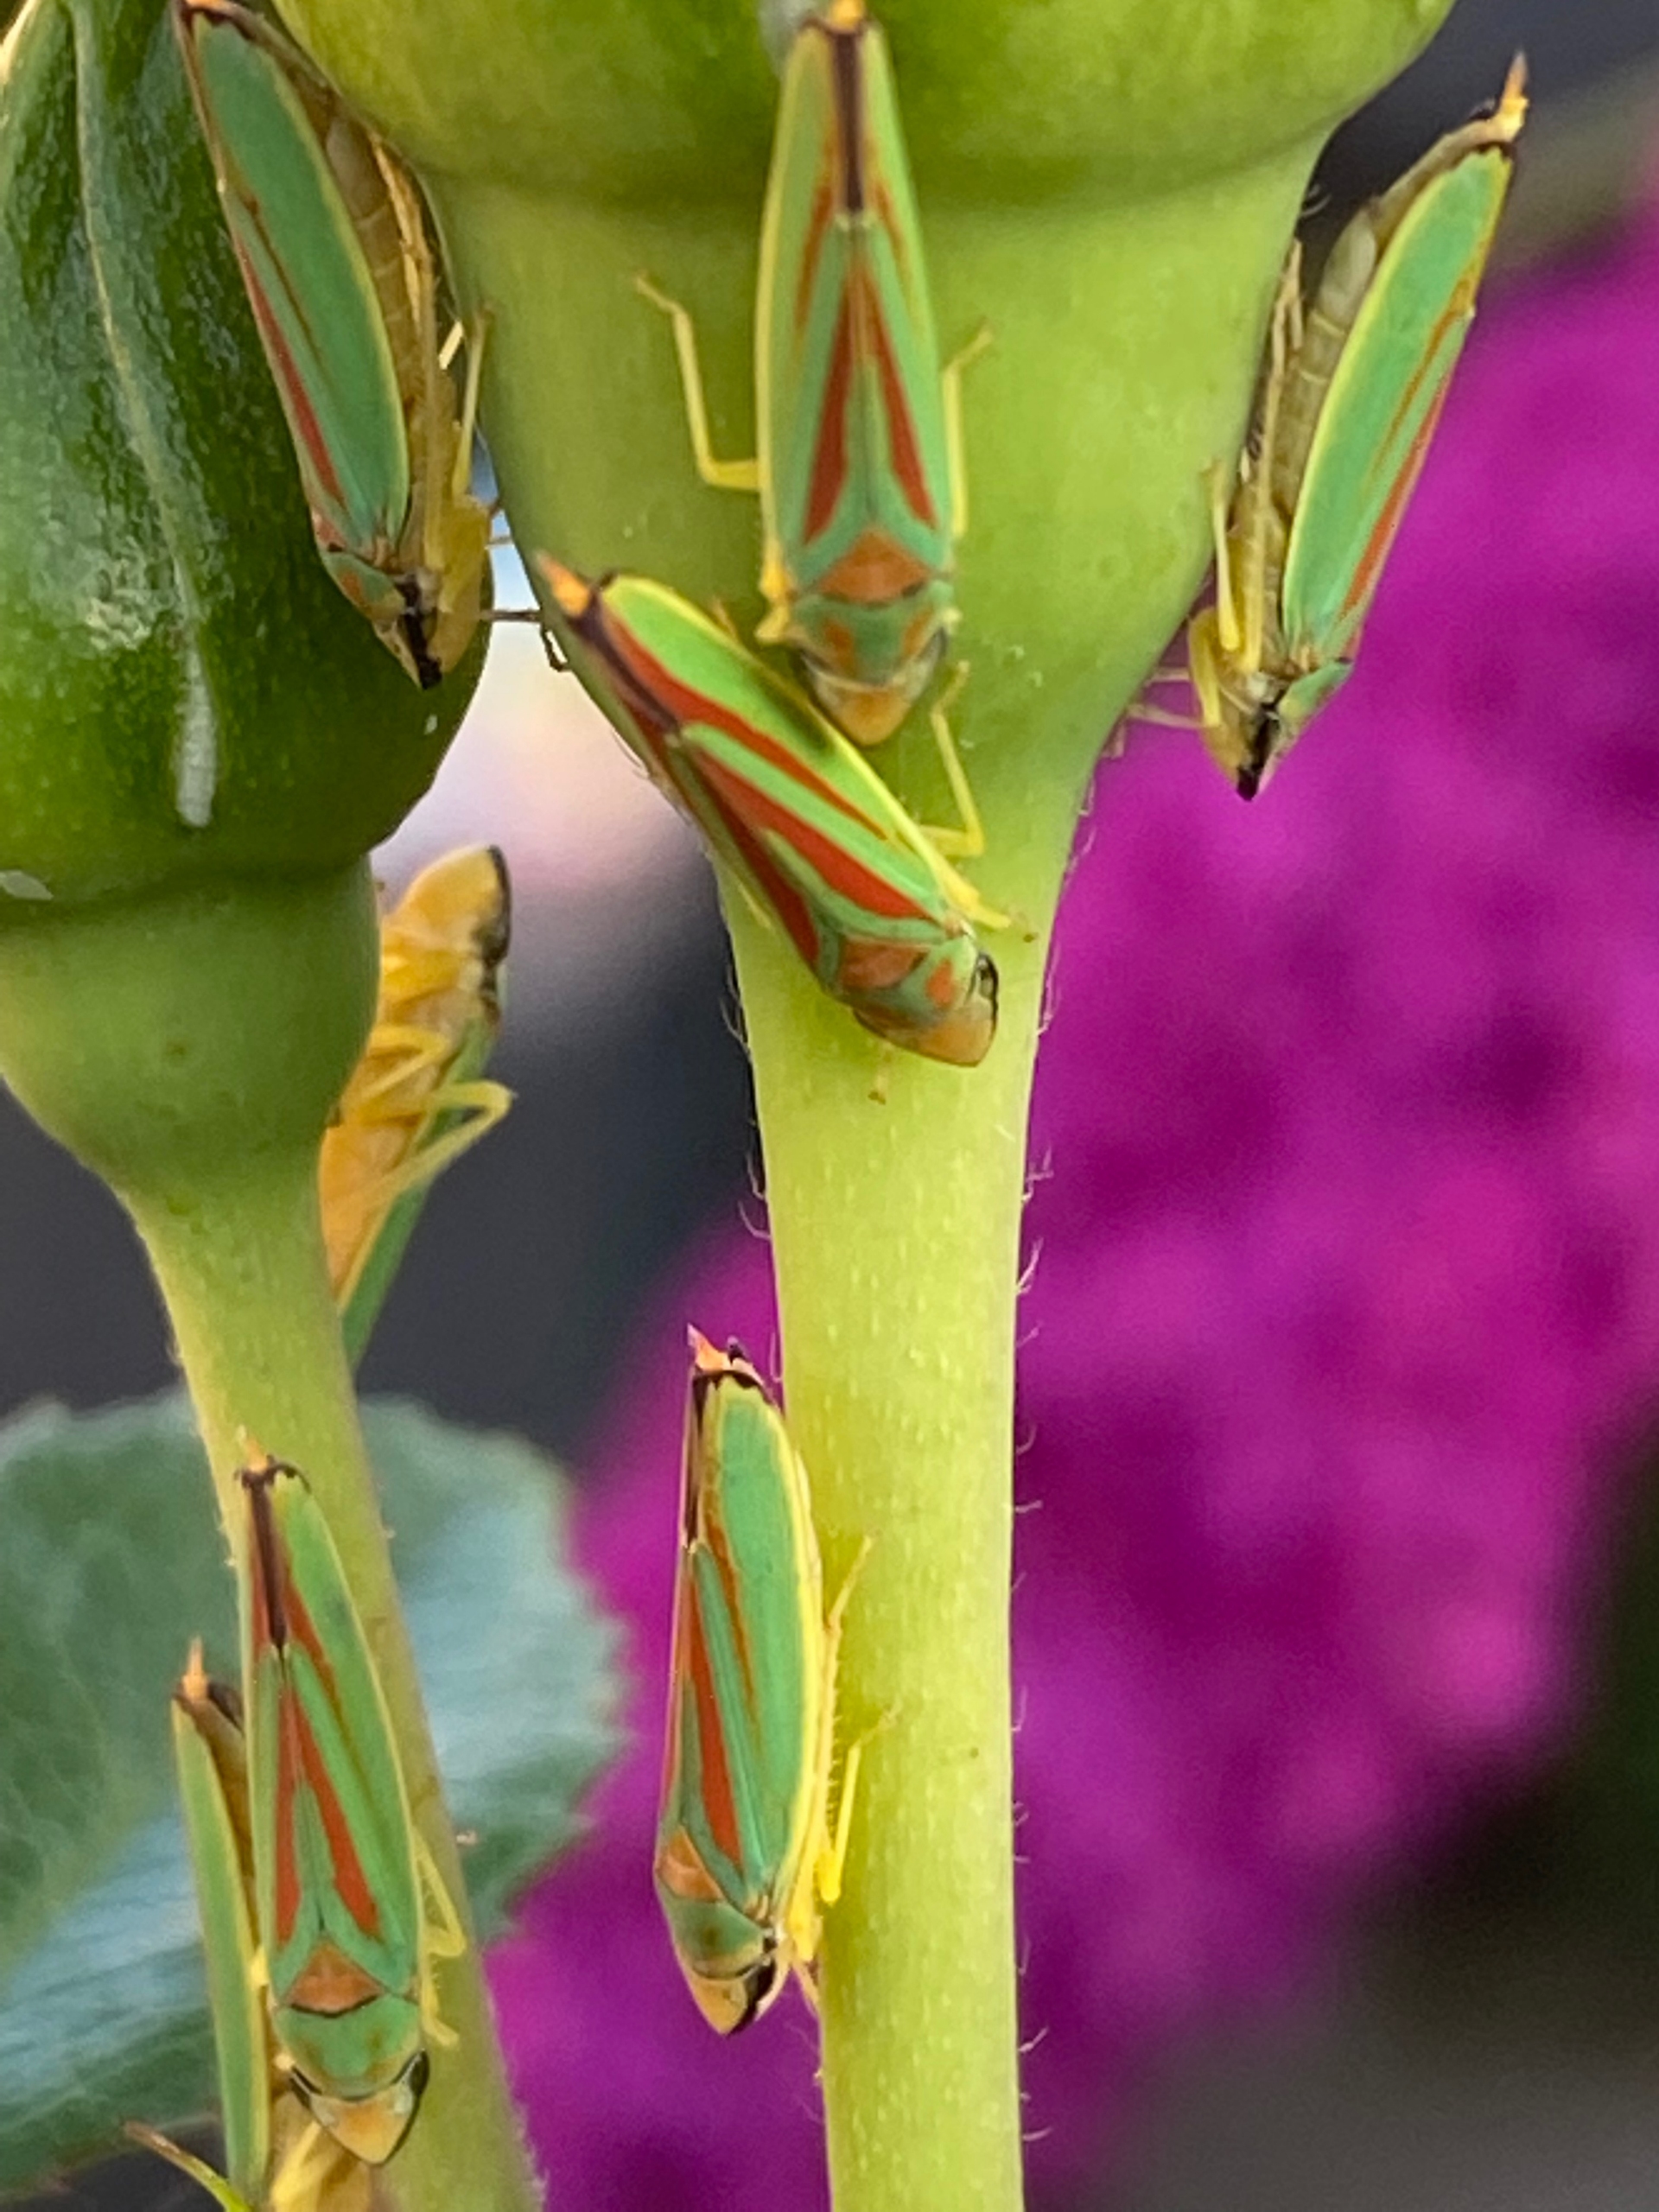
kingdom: Animalia
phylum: Arthropoda
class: Insecta
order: Hemiptera
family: Cicadellidae
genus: Graphocephala
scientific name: Graphocephala fennahi
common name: Rododendroncikade
